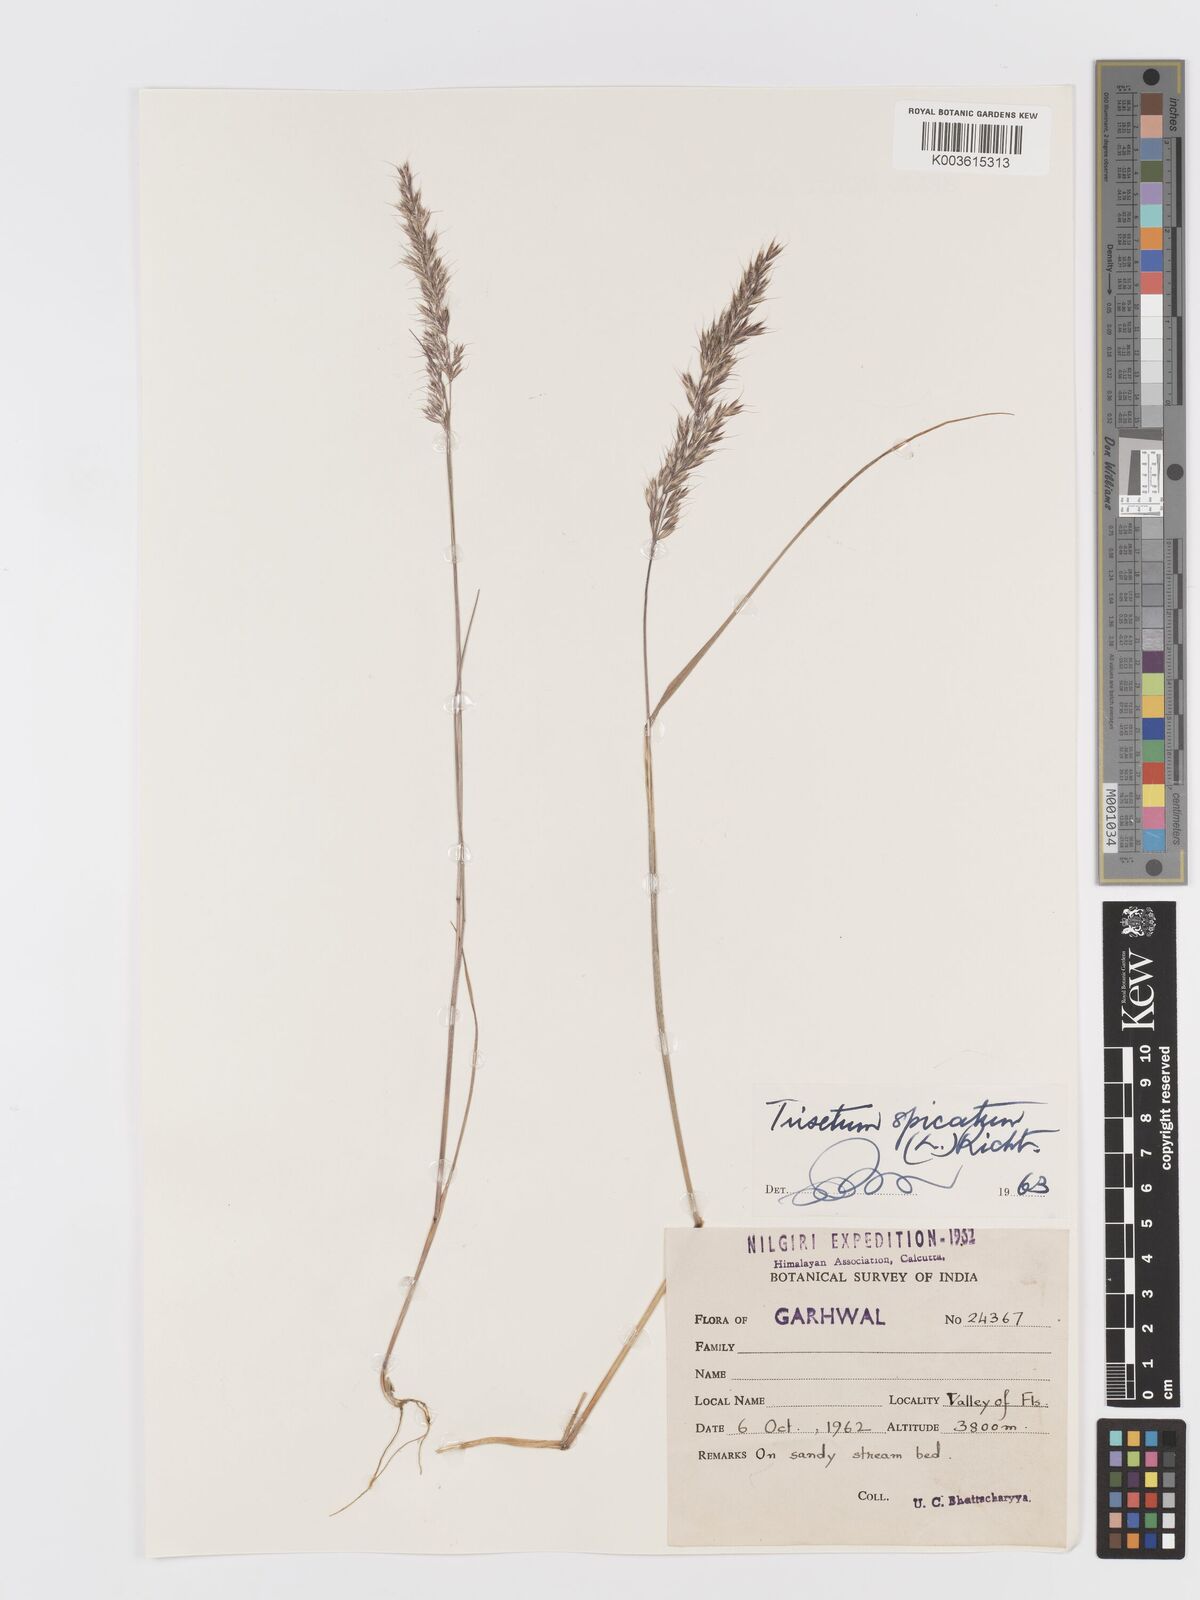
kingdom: Plantae
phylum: Tracheophyta
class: Liliopsida
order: Poales
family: Poaceae
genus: Koeleria
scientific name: Koeleria spicata
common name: Mountain trisetum
